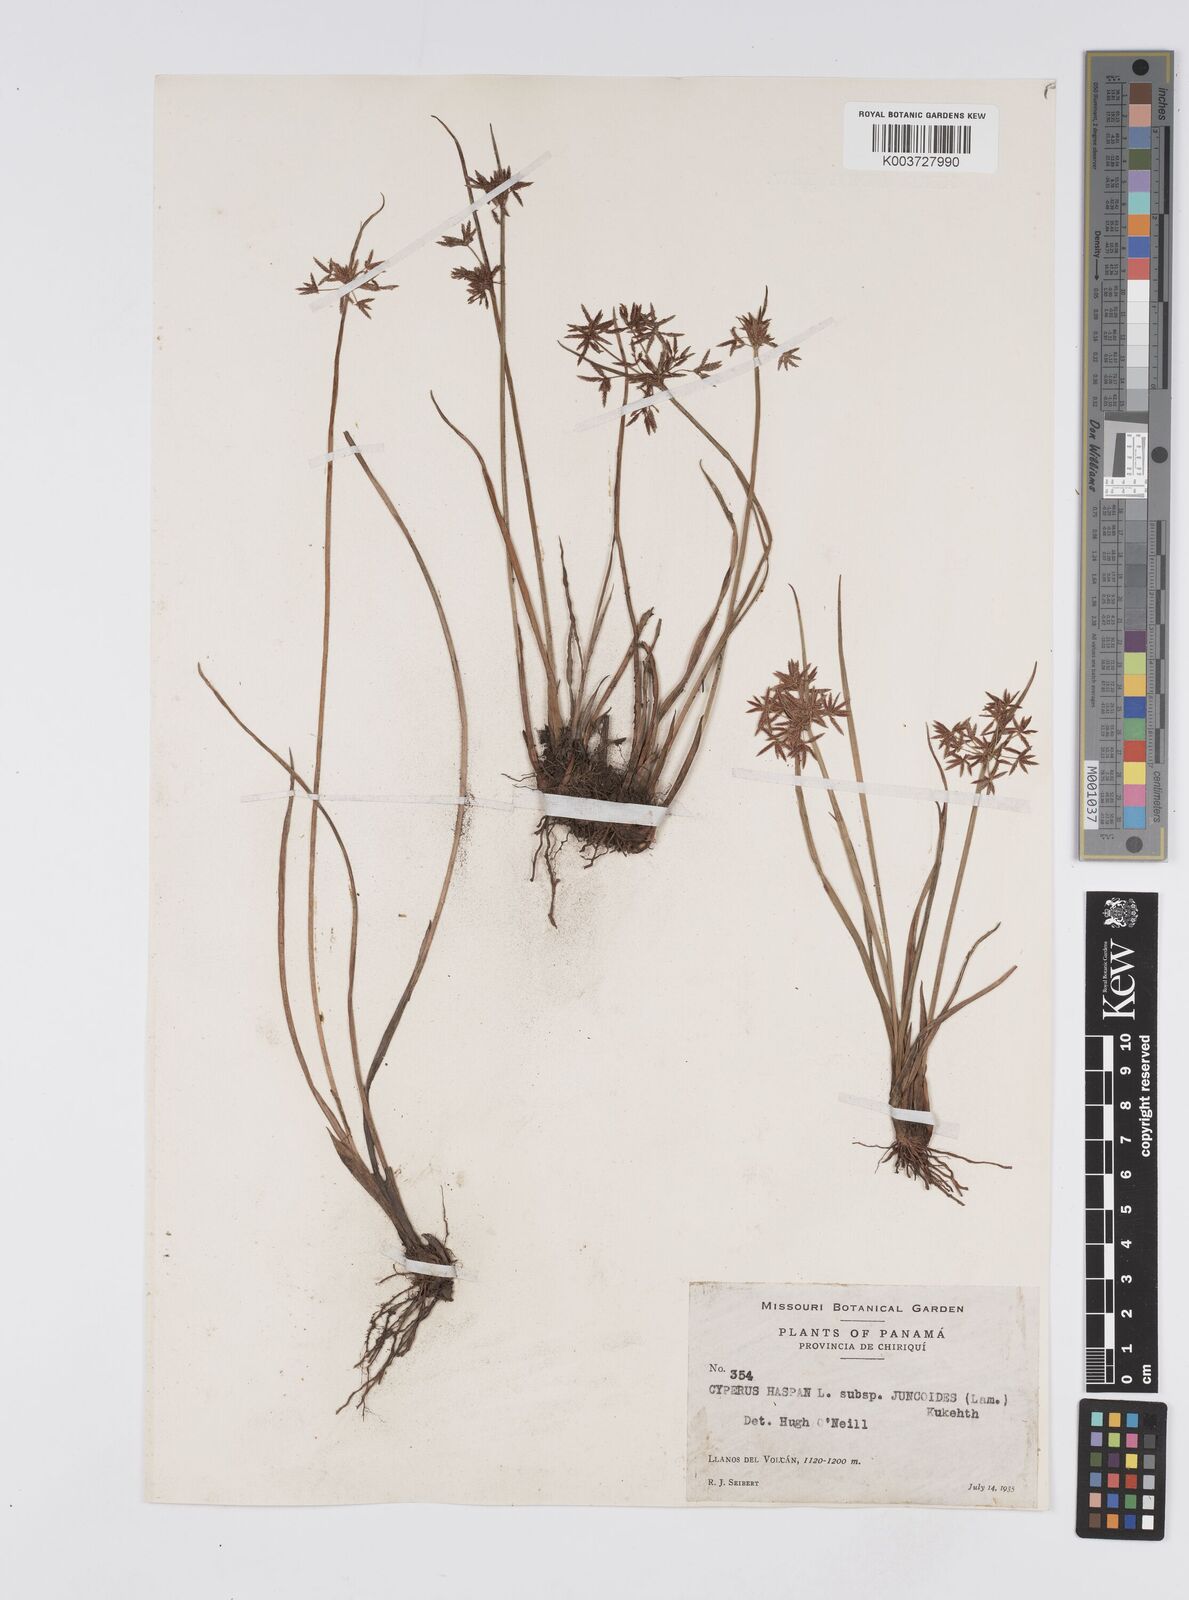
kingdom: Plantae
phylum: Tracheophyta
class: Liliopsida
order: Poales
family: Cyperaceae
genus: Cyperus
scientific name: Cyperus haspan
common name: Haspan flatsedge
